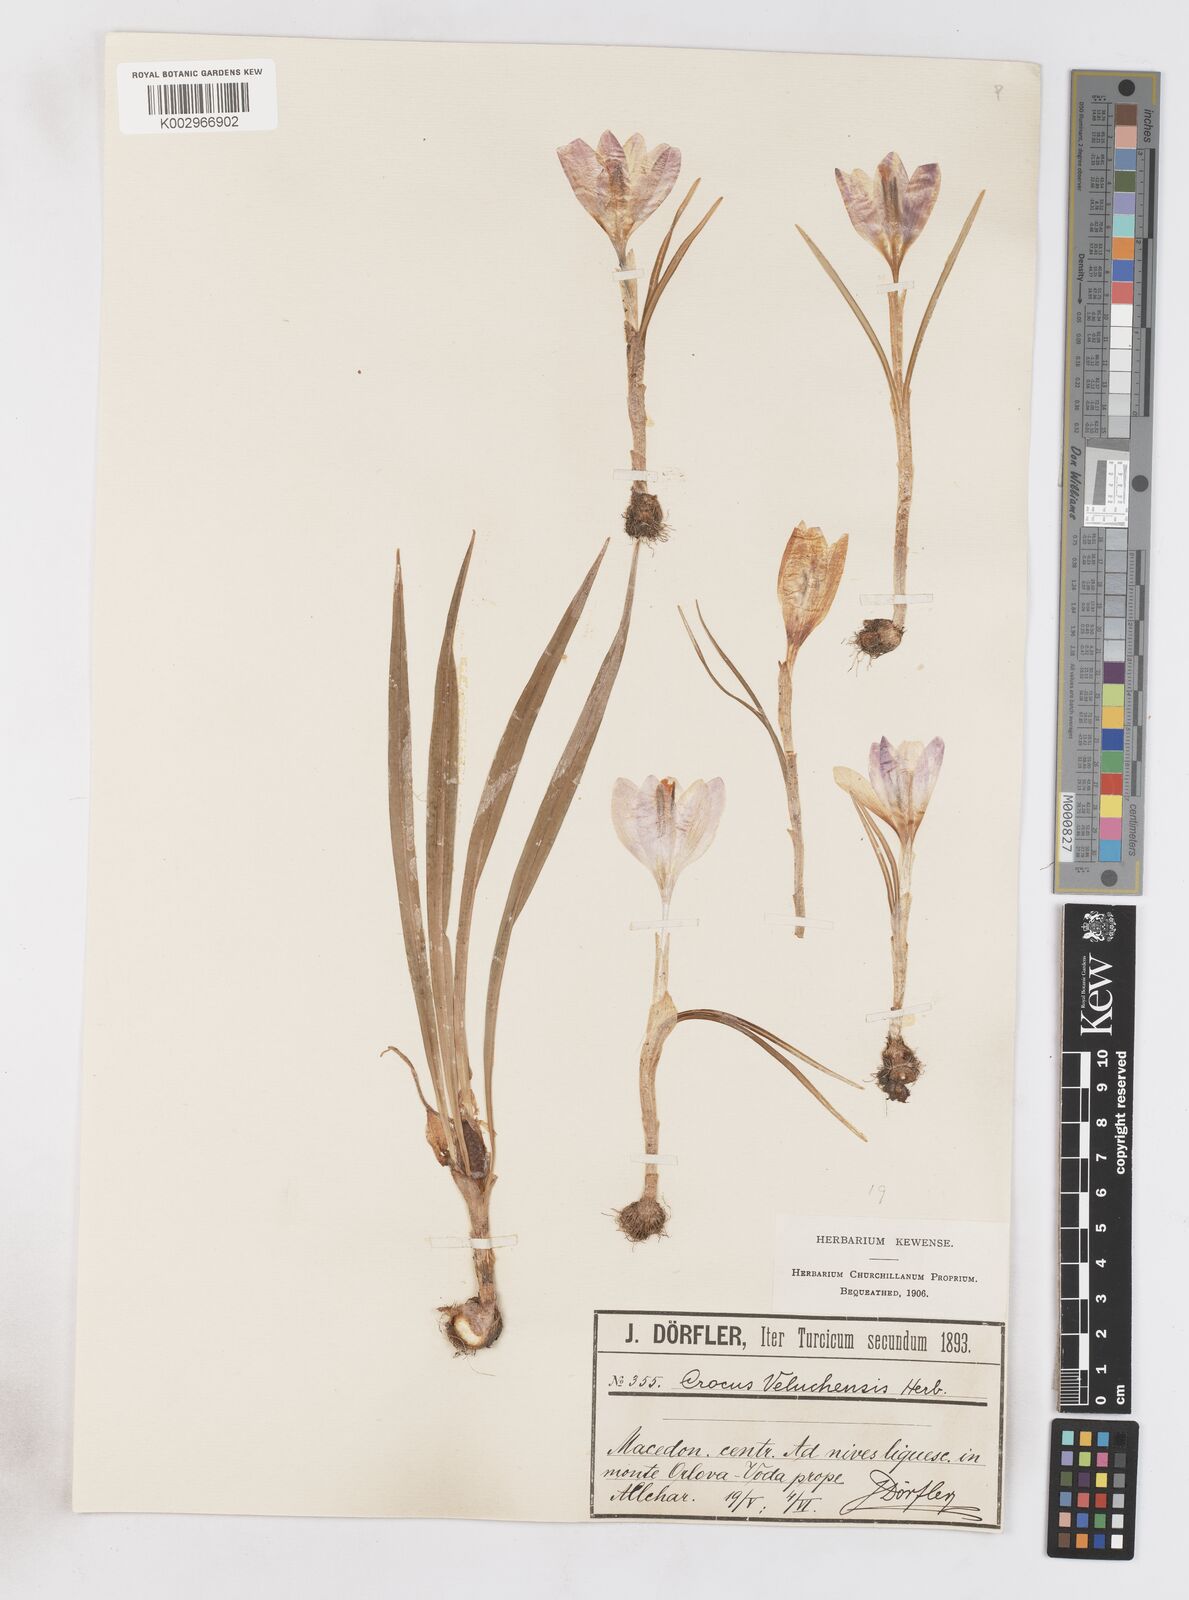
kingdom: Plantae
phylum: Tracheophyta
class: Liliopsida
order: Asparagales
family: Iridaceae
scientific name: Iridaceae
